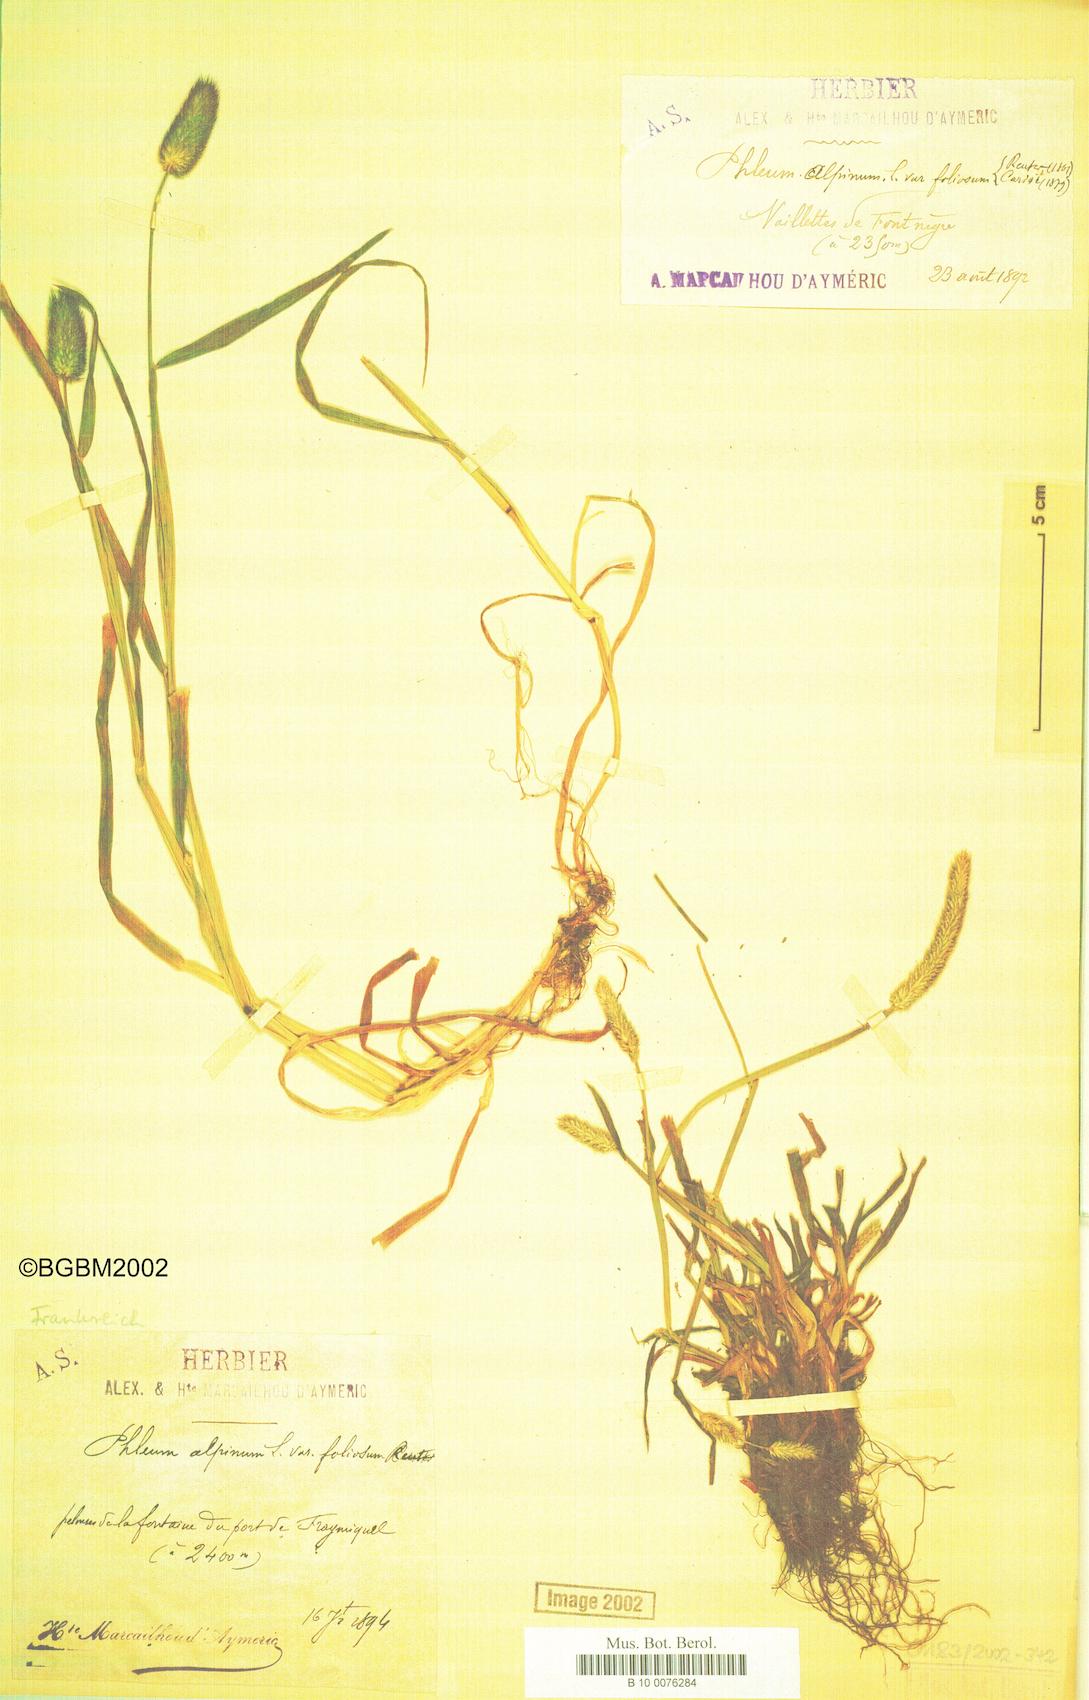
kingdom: Plantae
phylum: Tracheophyta
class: Liliopsida
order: Poales
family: Poaceae
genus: Phleum
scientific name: Phleum alpinum
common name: Alpine cat's-tail
